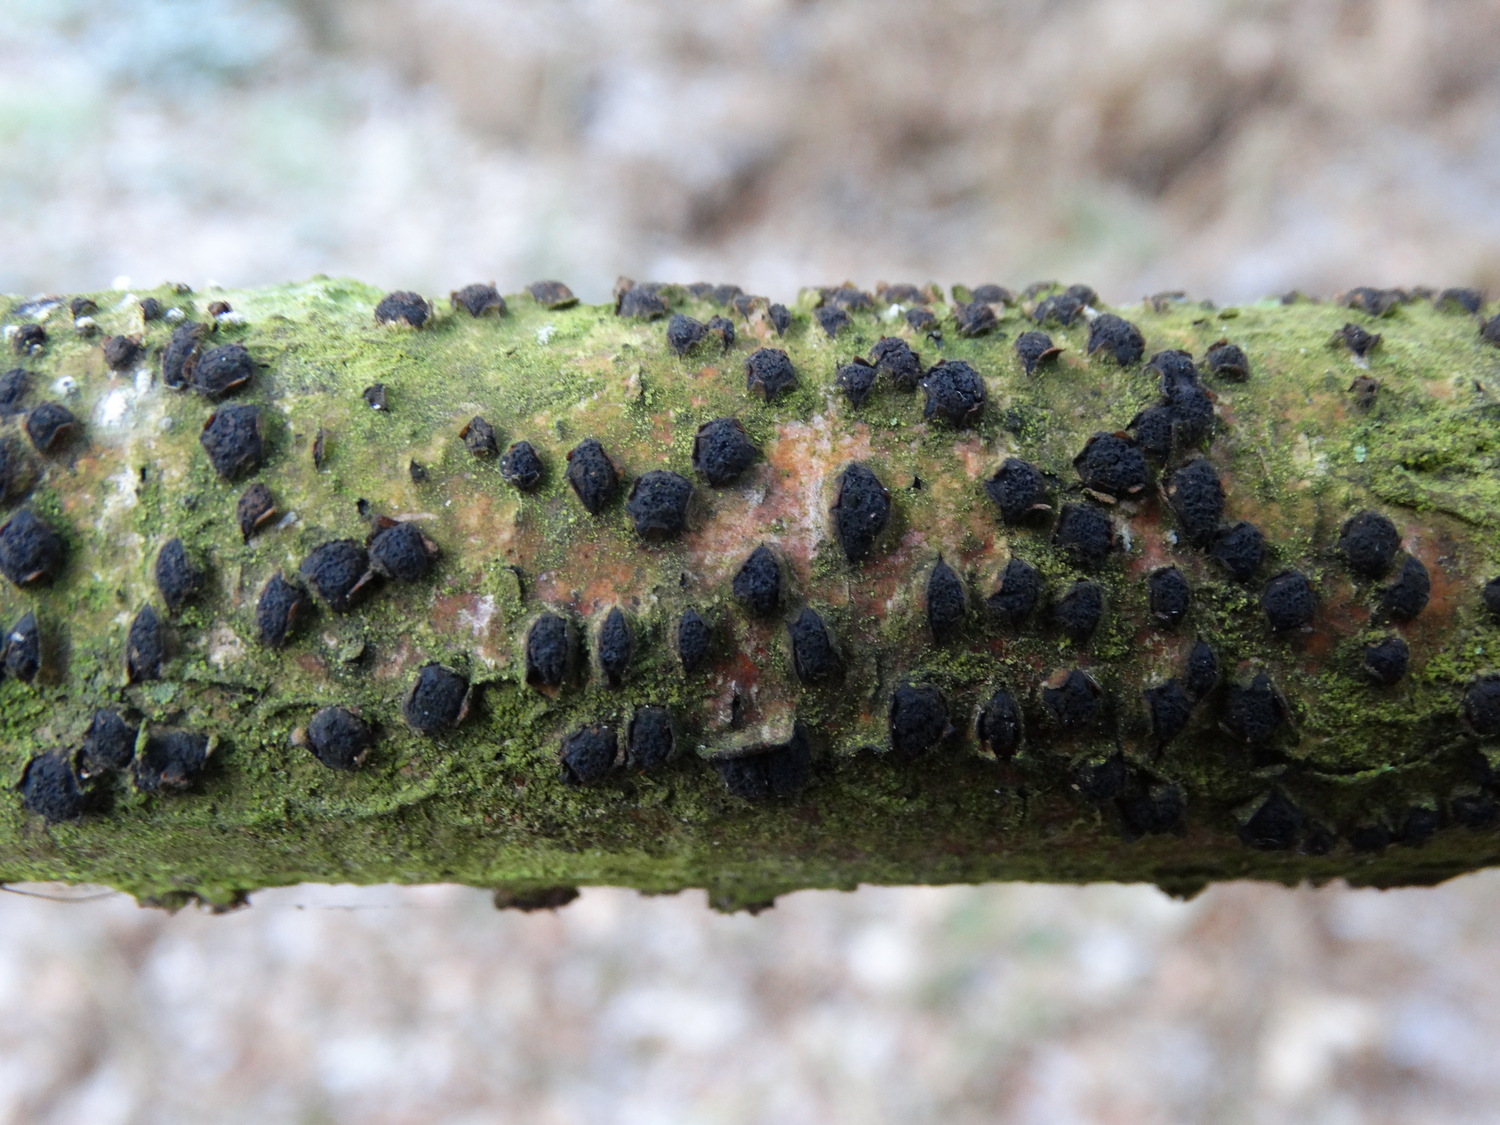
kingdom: Fungi
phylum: Ascomycota
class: Sordariomycetes
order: Xylariales
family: Diatrypaceae
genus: Diatrypella
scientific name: Diatrypella quercina
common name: ege-kulskorpe
